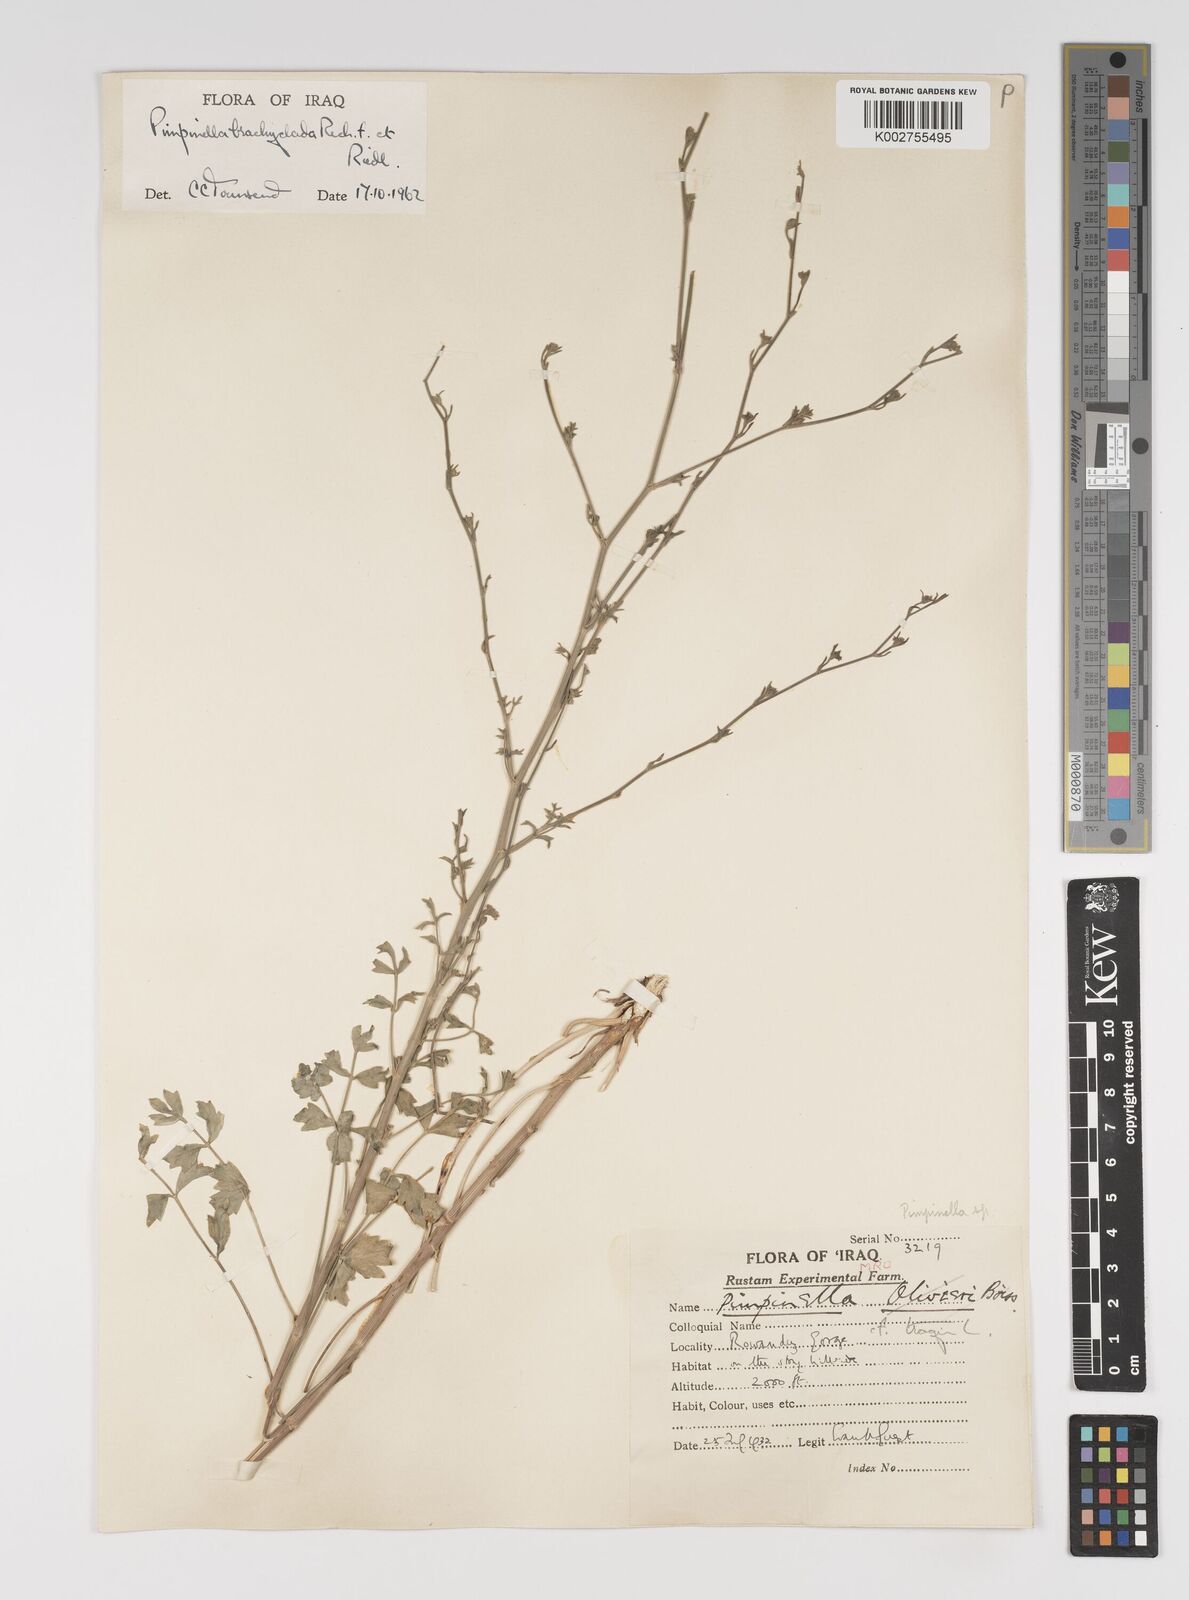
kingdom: Plantae
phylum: Tracheophyta
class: Magnoliopsida
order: Apiales
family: Apiaceae
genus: Pimpinella
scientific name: Pimpinella brachyclada
